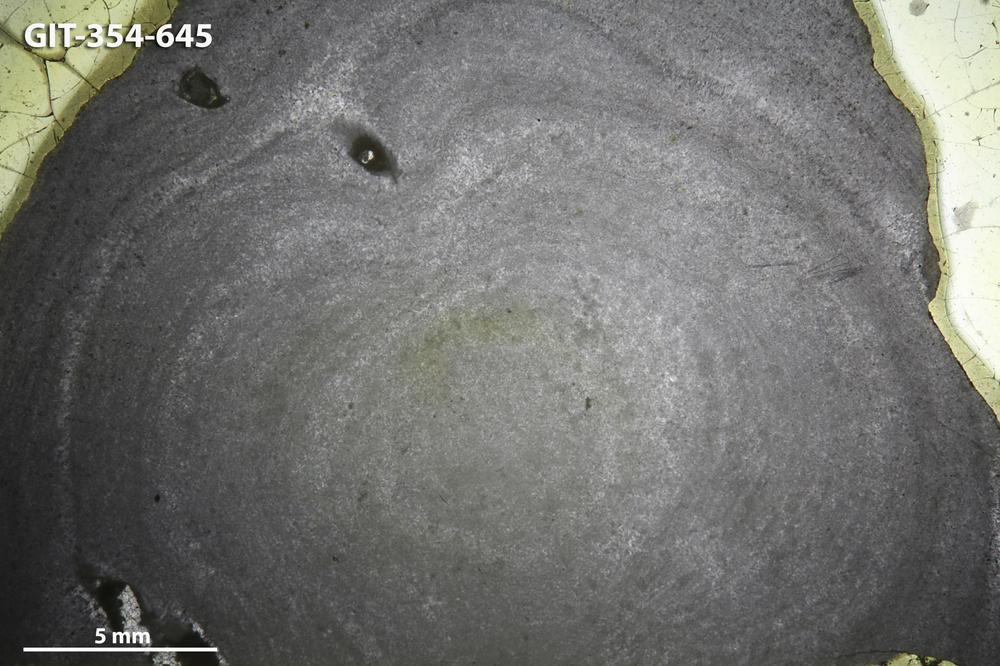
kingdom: Animalia
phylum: Porifera
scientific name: Porifera
